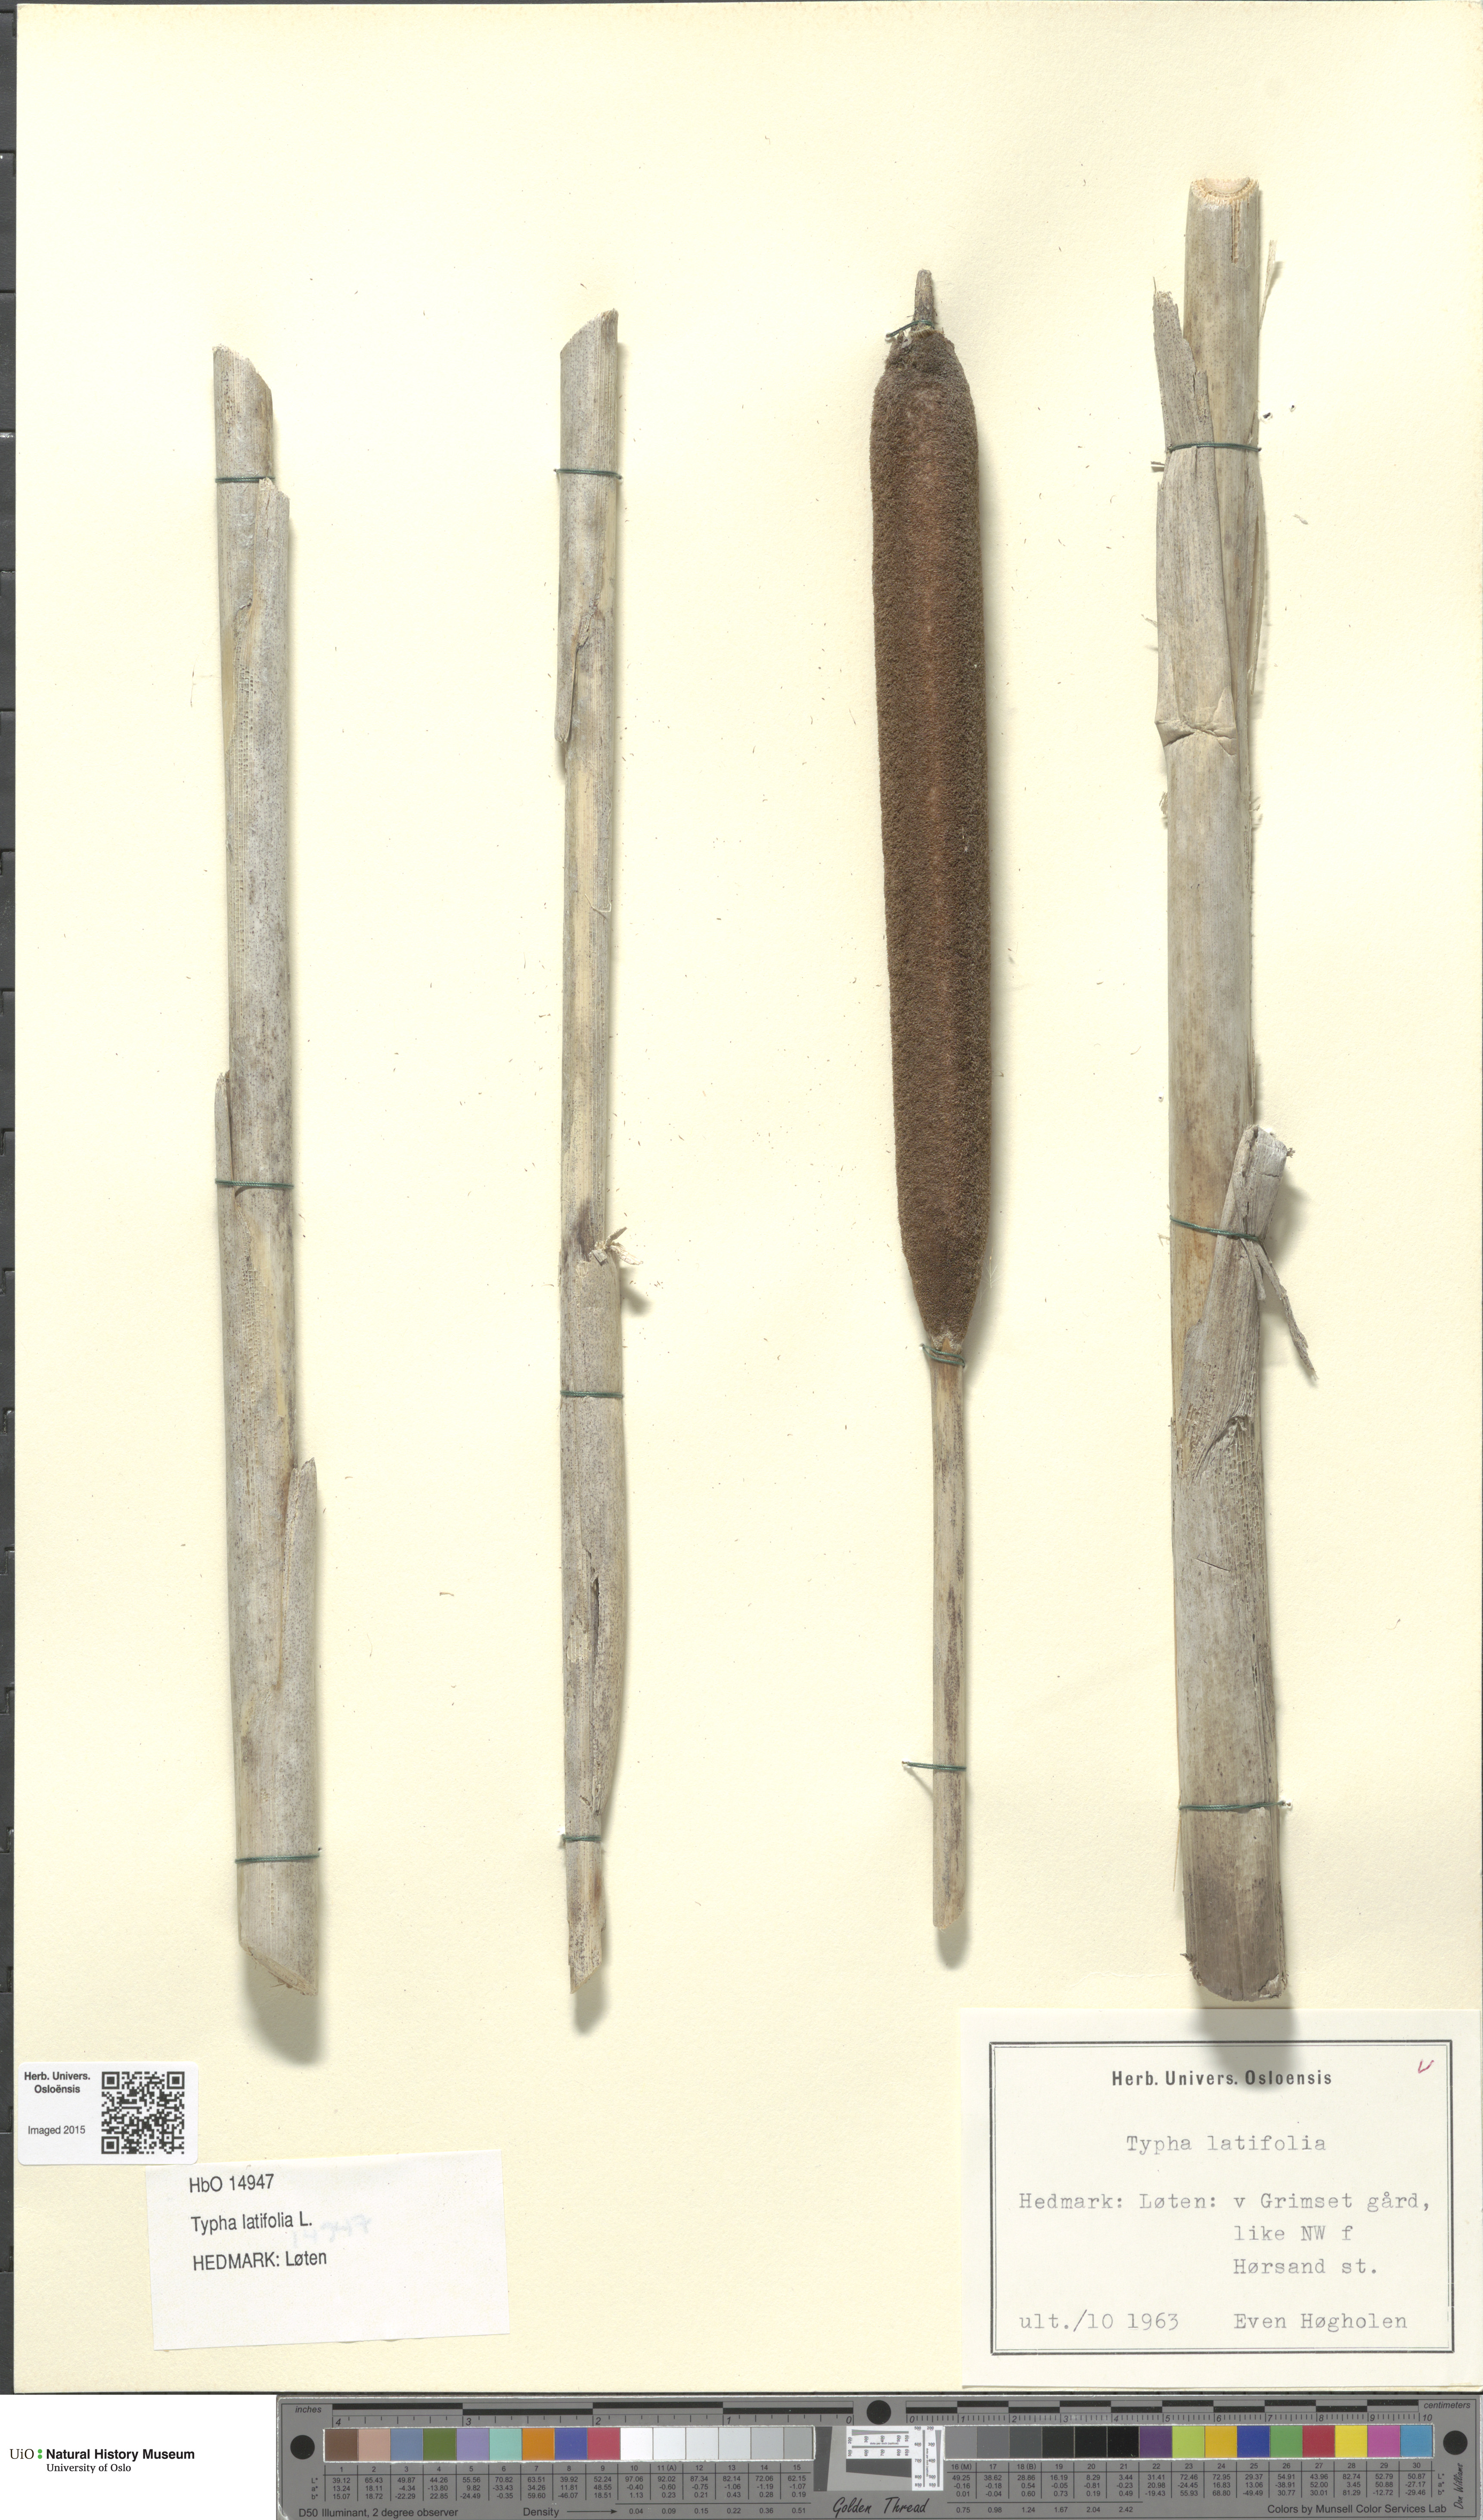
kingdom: Plantae
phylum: Tracheophyta
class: Liliopsida
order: Poales
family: Typhaceae
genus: Typha
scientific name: Typha latifolia
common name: Broadleaf cattail
